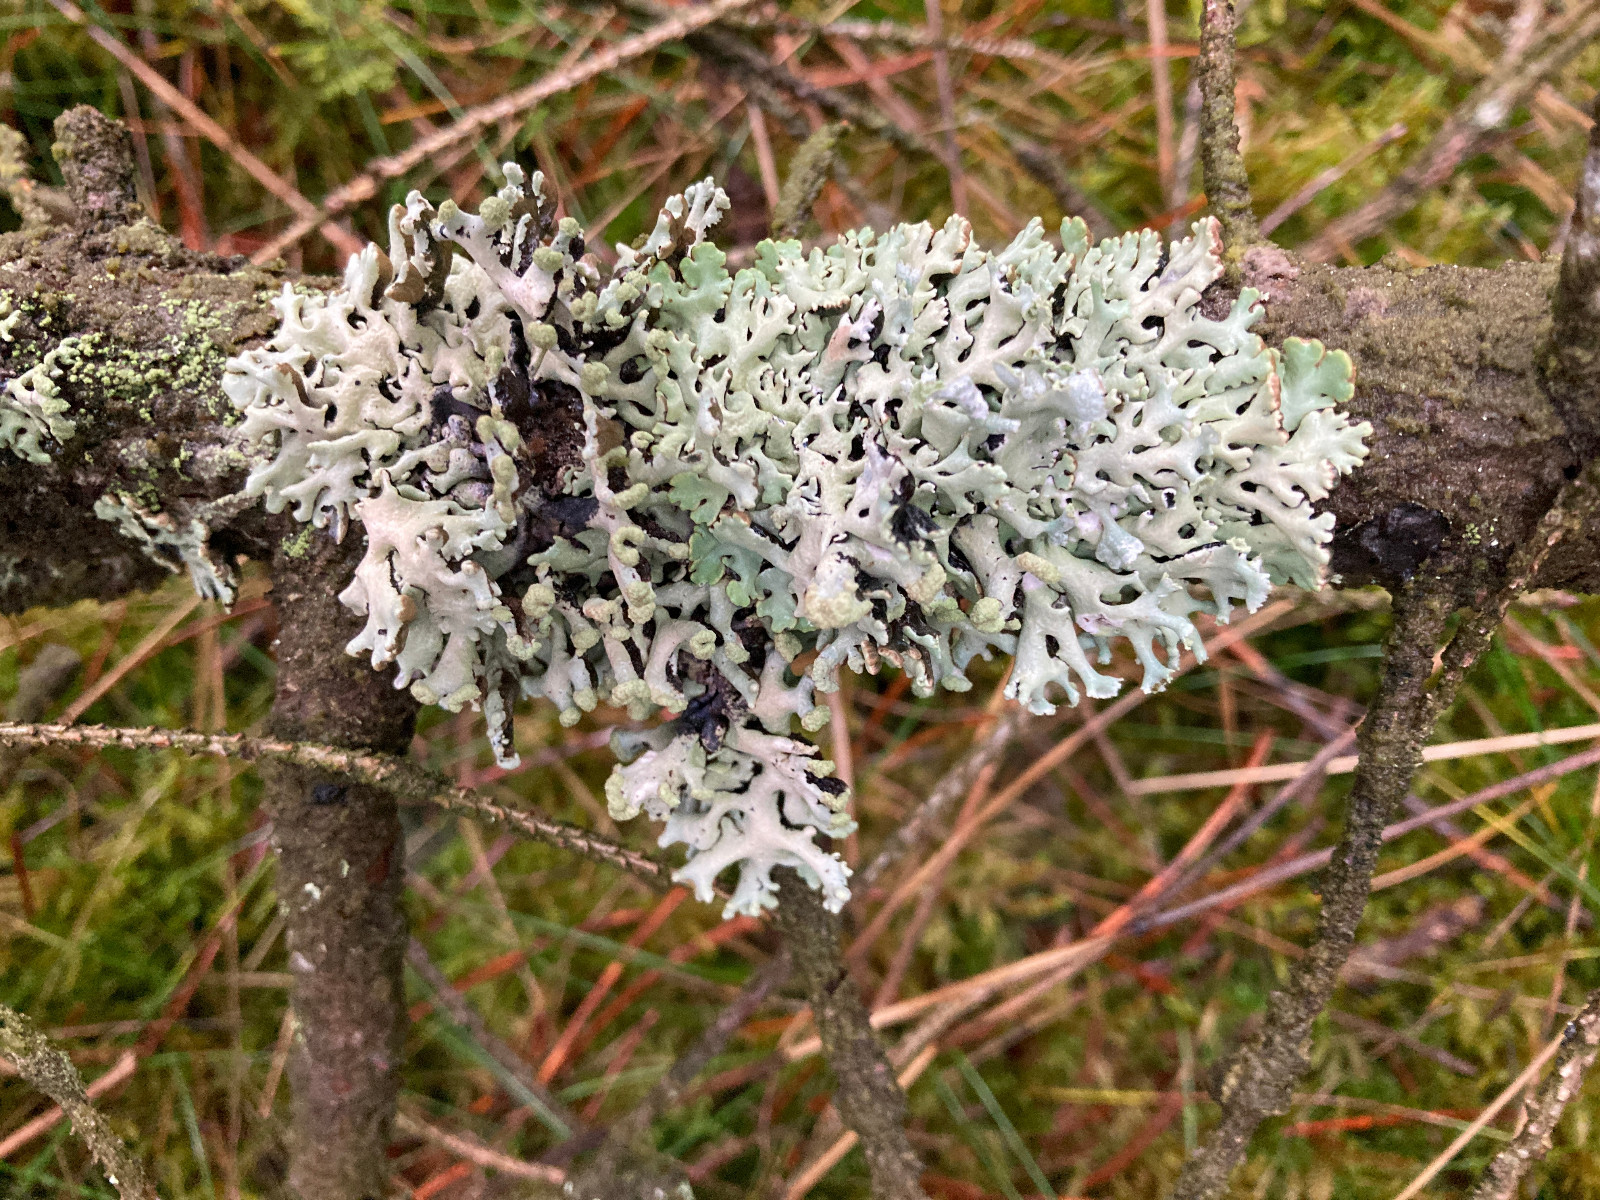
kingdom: Fungi
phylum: Ascomycota
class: Lecanoromycetes
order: Lecanorales
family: Parmeliaceae
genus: Hypogymnia
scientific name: Hypogymnia physodes
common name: almindelig kvistlav
